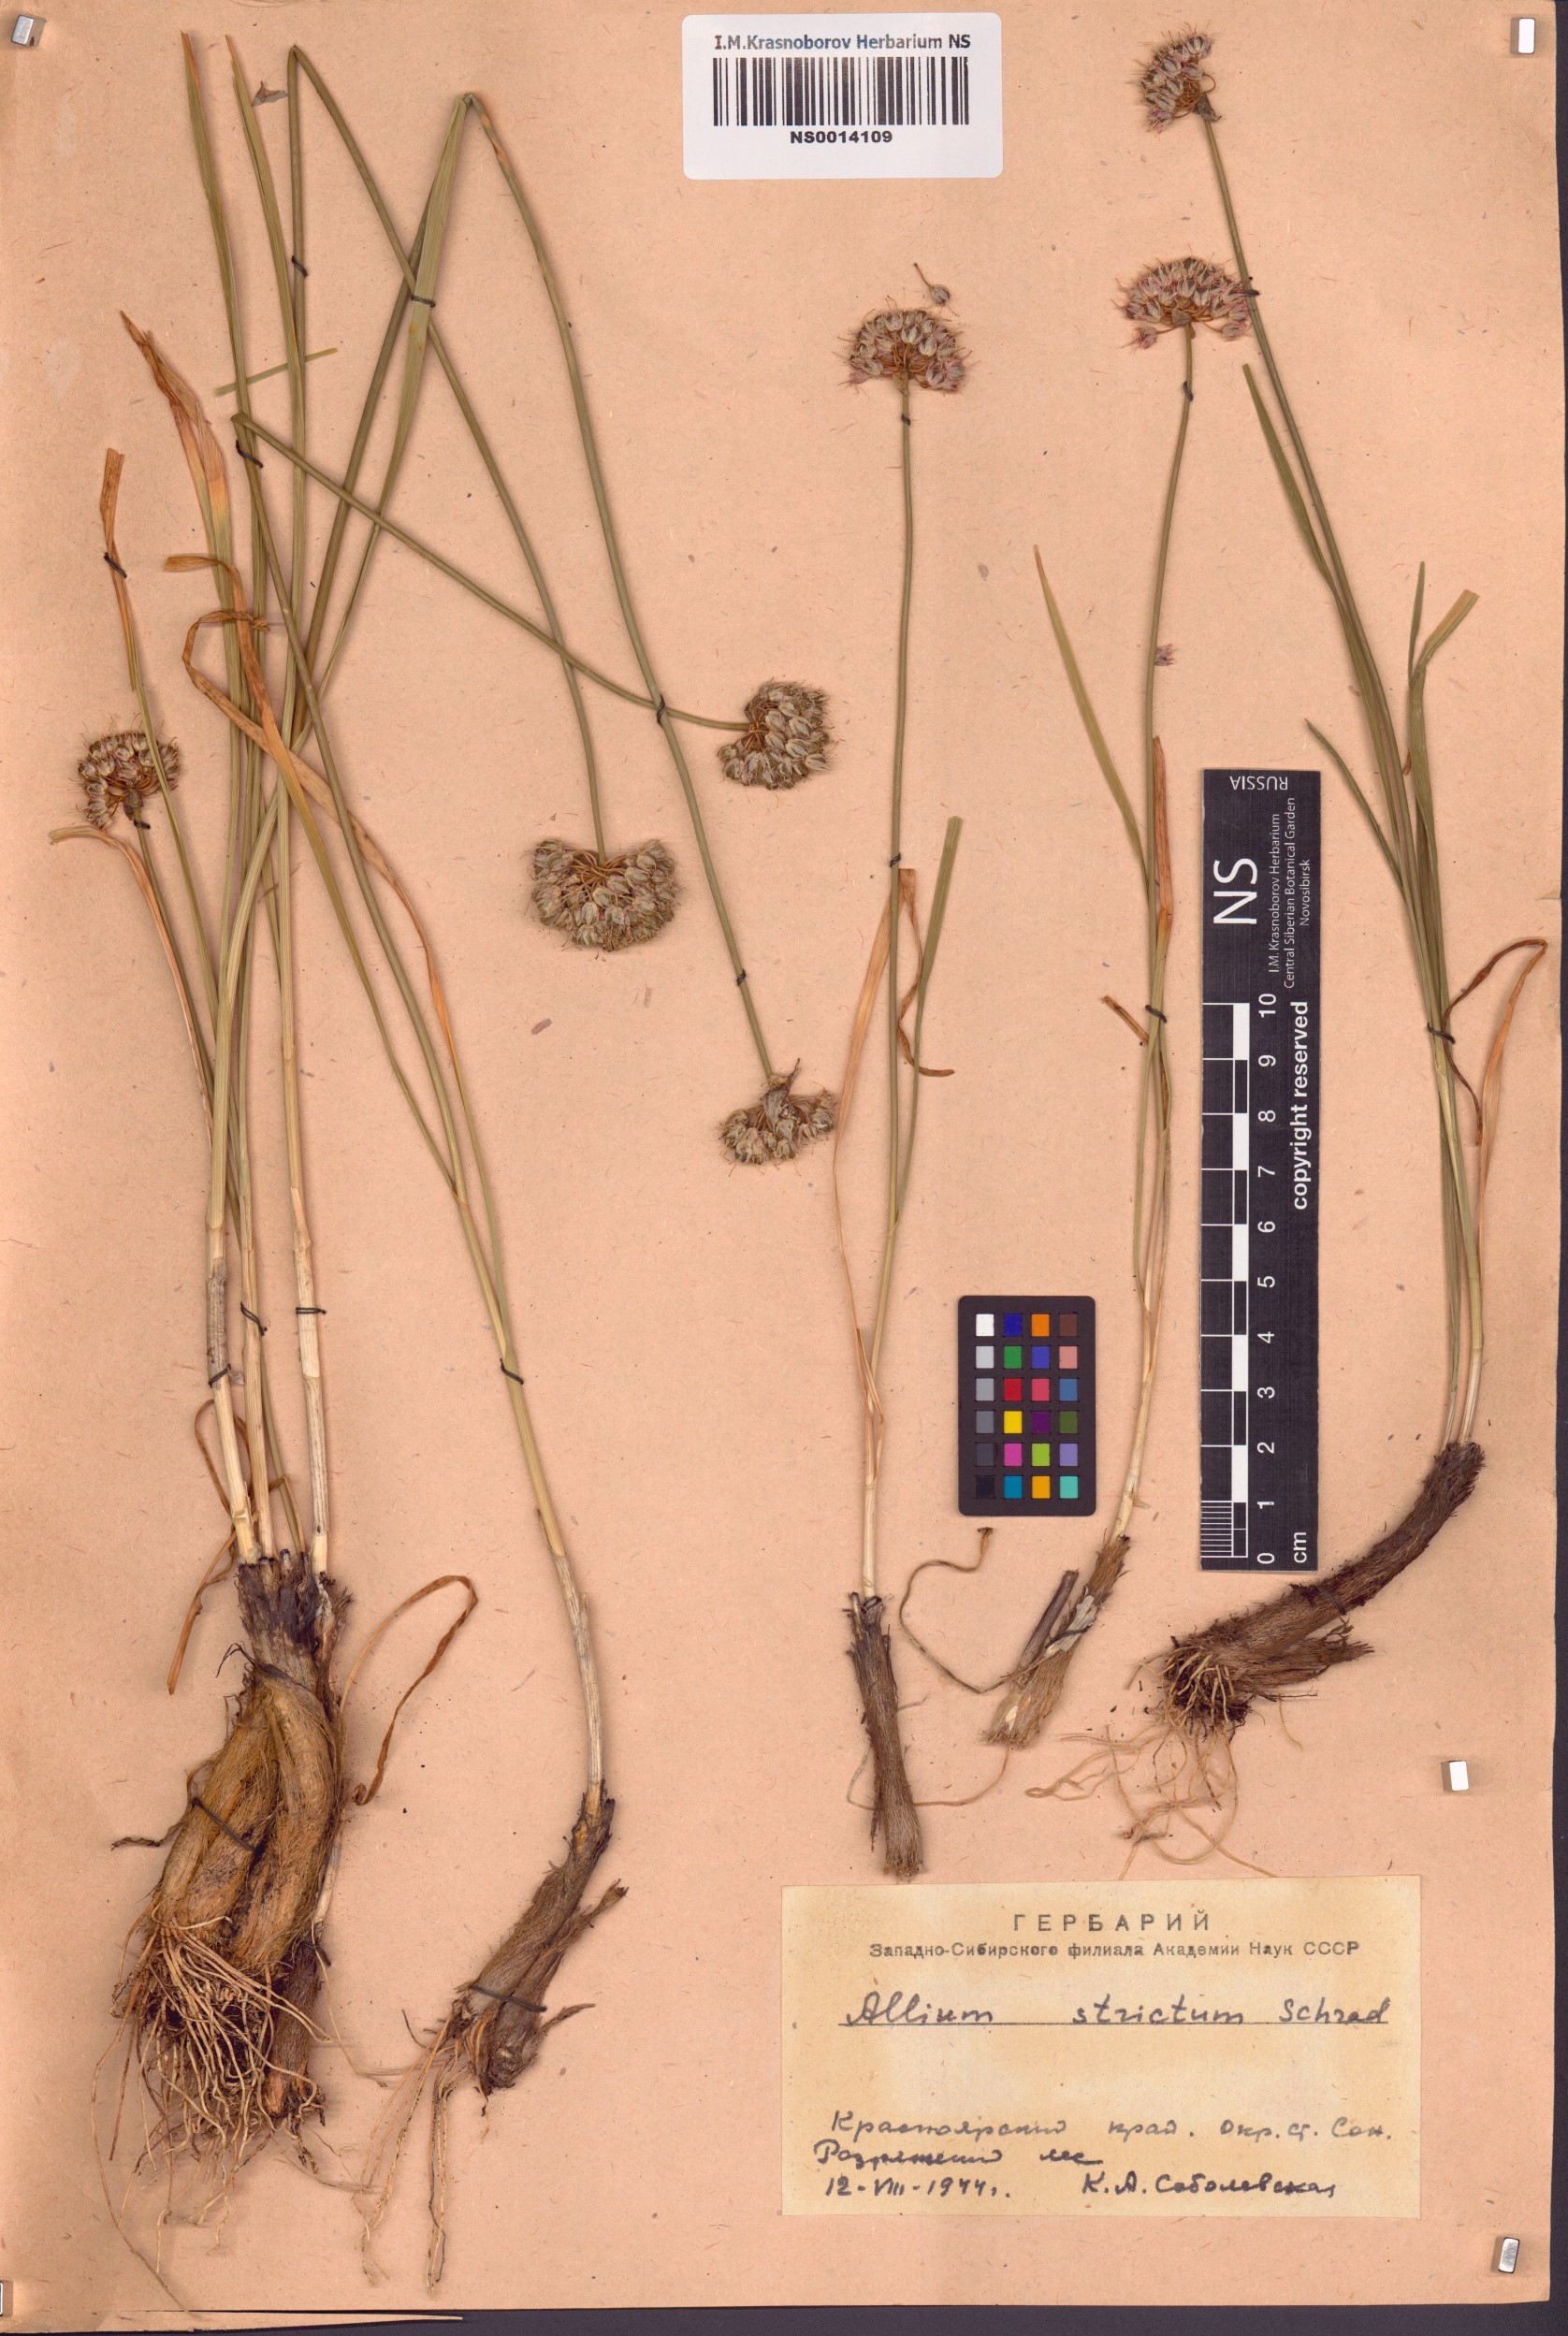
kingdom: Plantae
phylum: Tracheophyta
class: Liliopsida
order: Asparagales
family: Amaryllidaceae
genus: Allium
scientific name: Allium strictum
